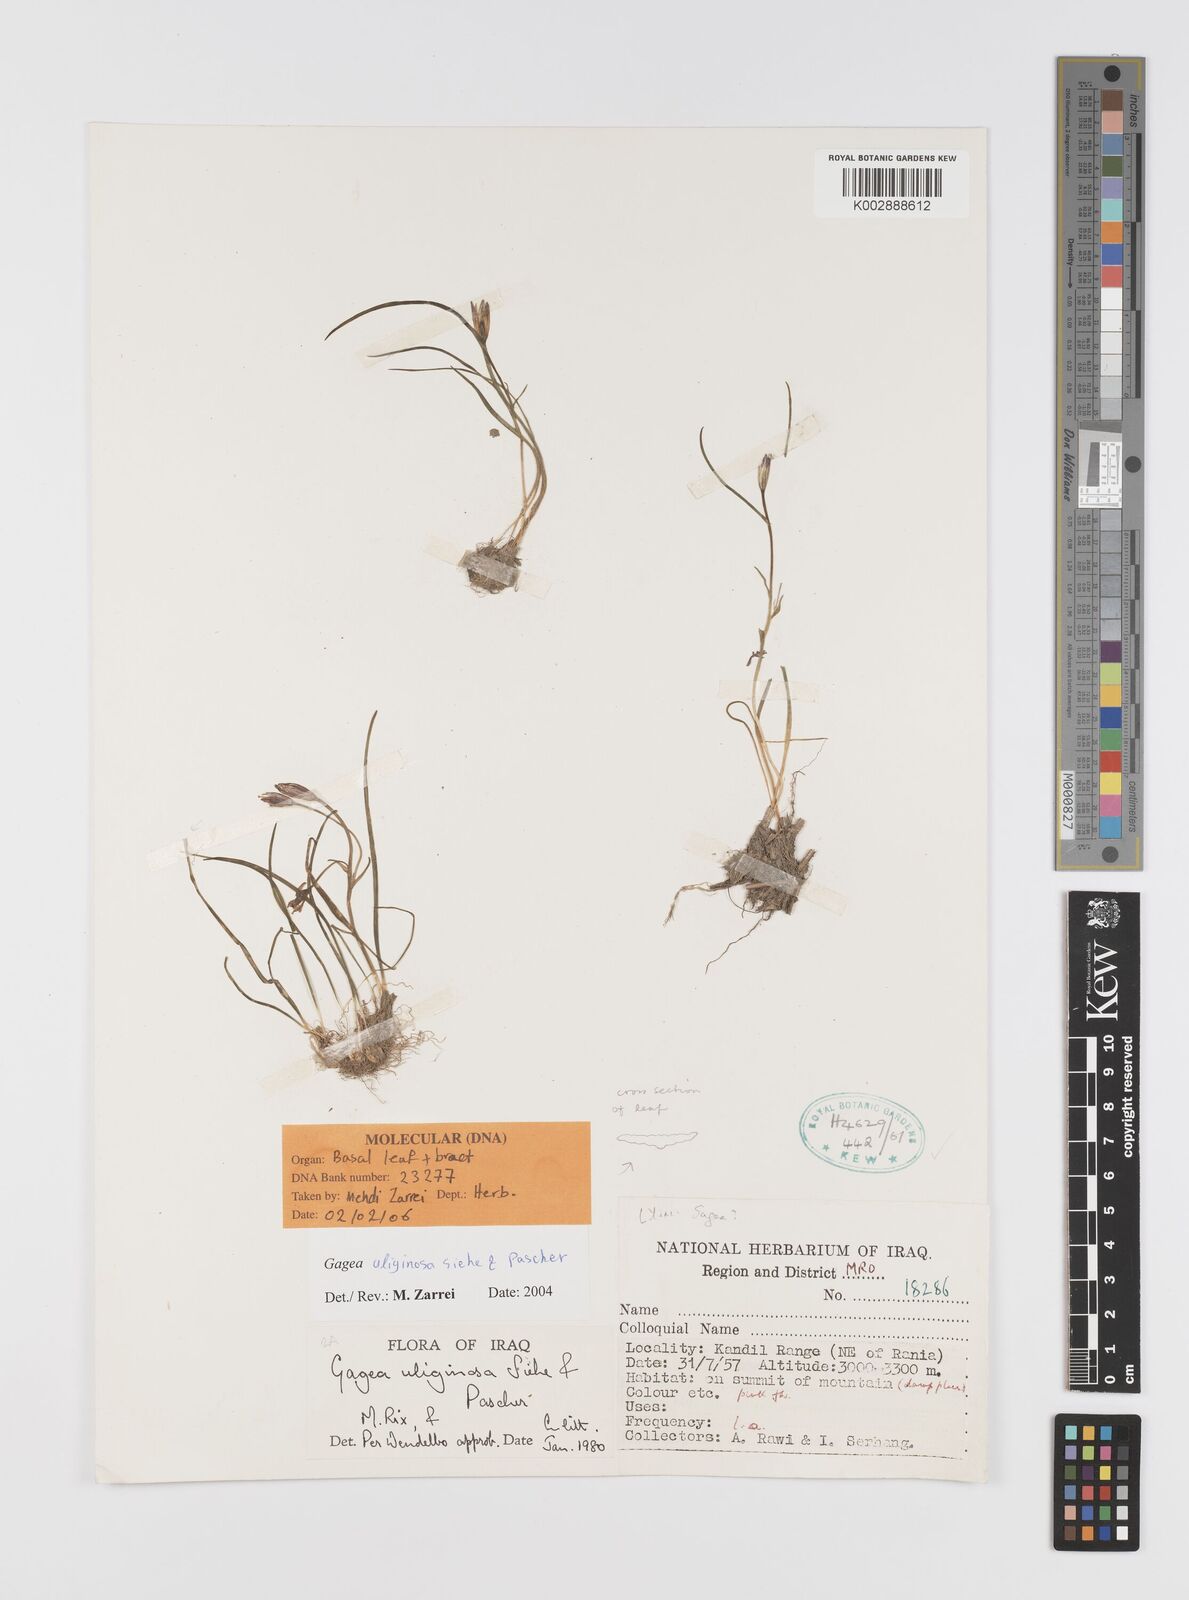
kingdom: Plantae
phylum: Tracheophyta
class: Liliopsida
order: Liliales
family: Liliaceae
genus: Gagea
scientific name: Gagea uliginosa
